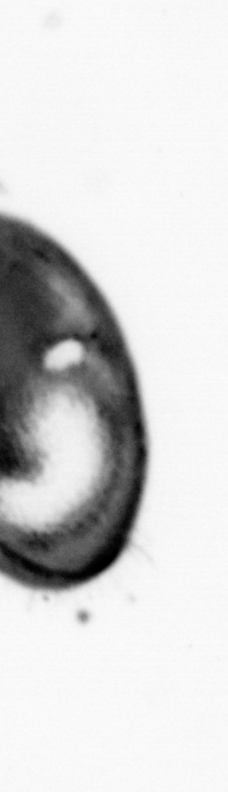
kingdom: Animalia
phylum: Annelida
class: Polychaeta
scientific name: Polychaeta
